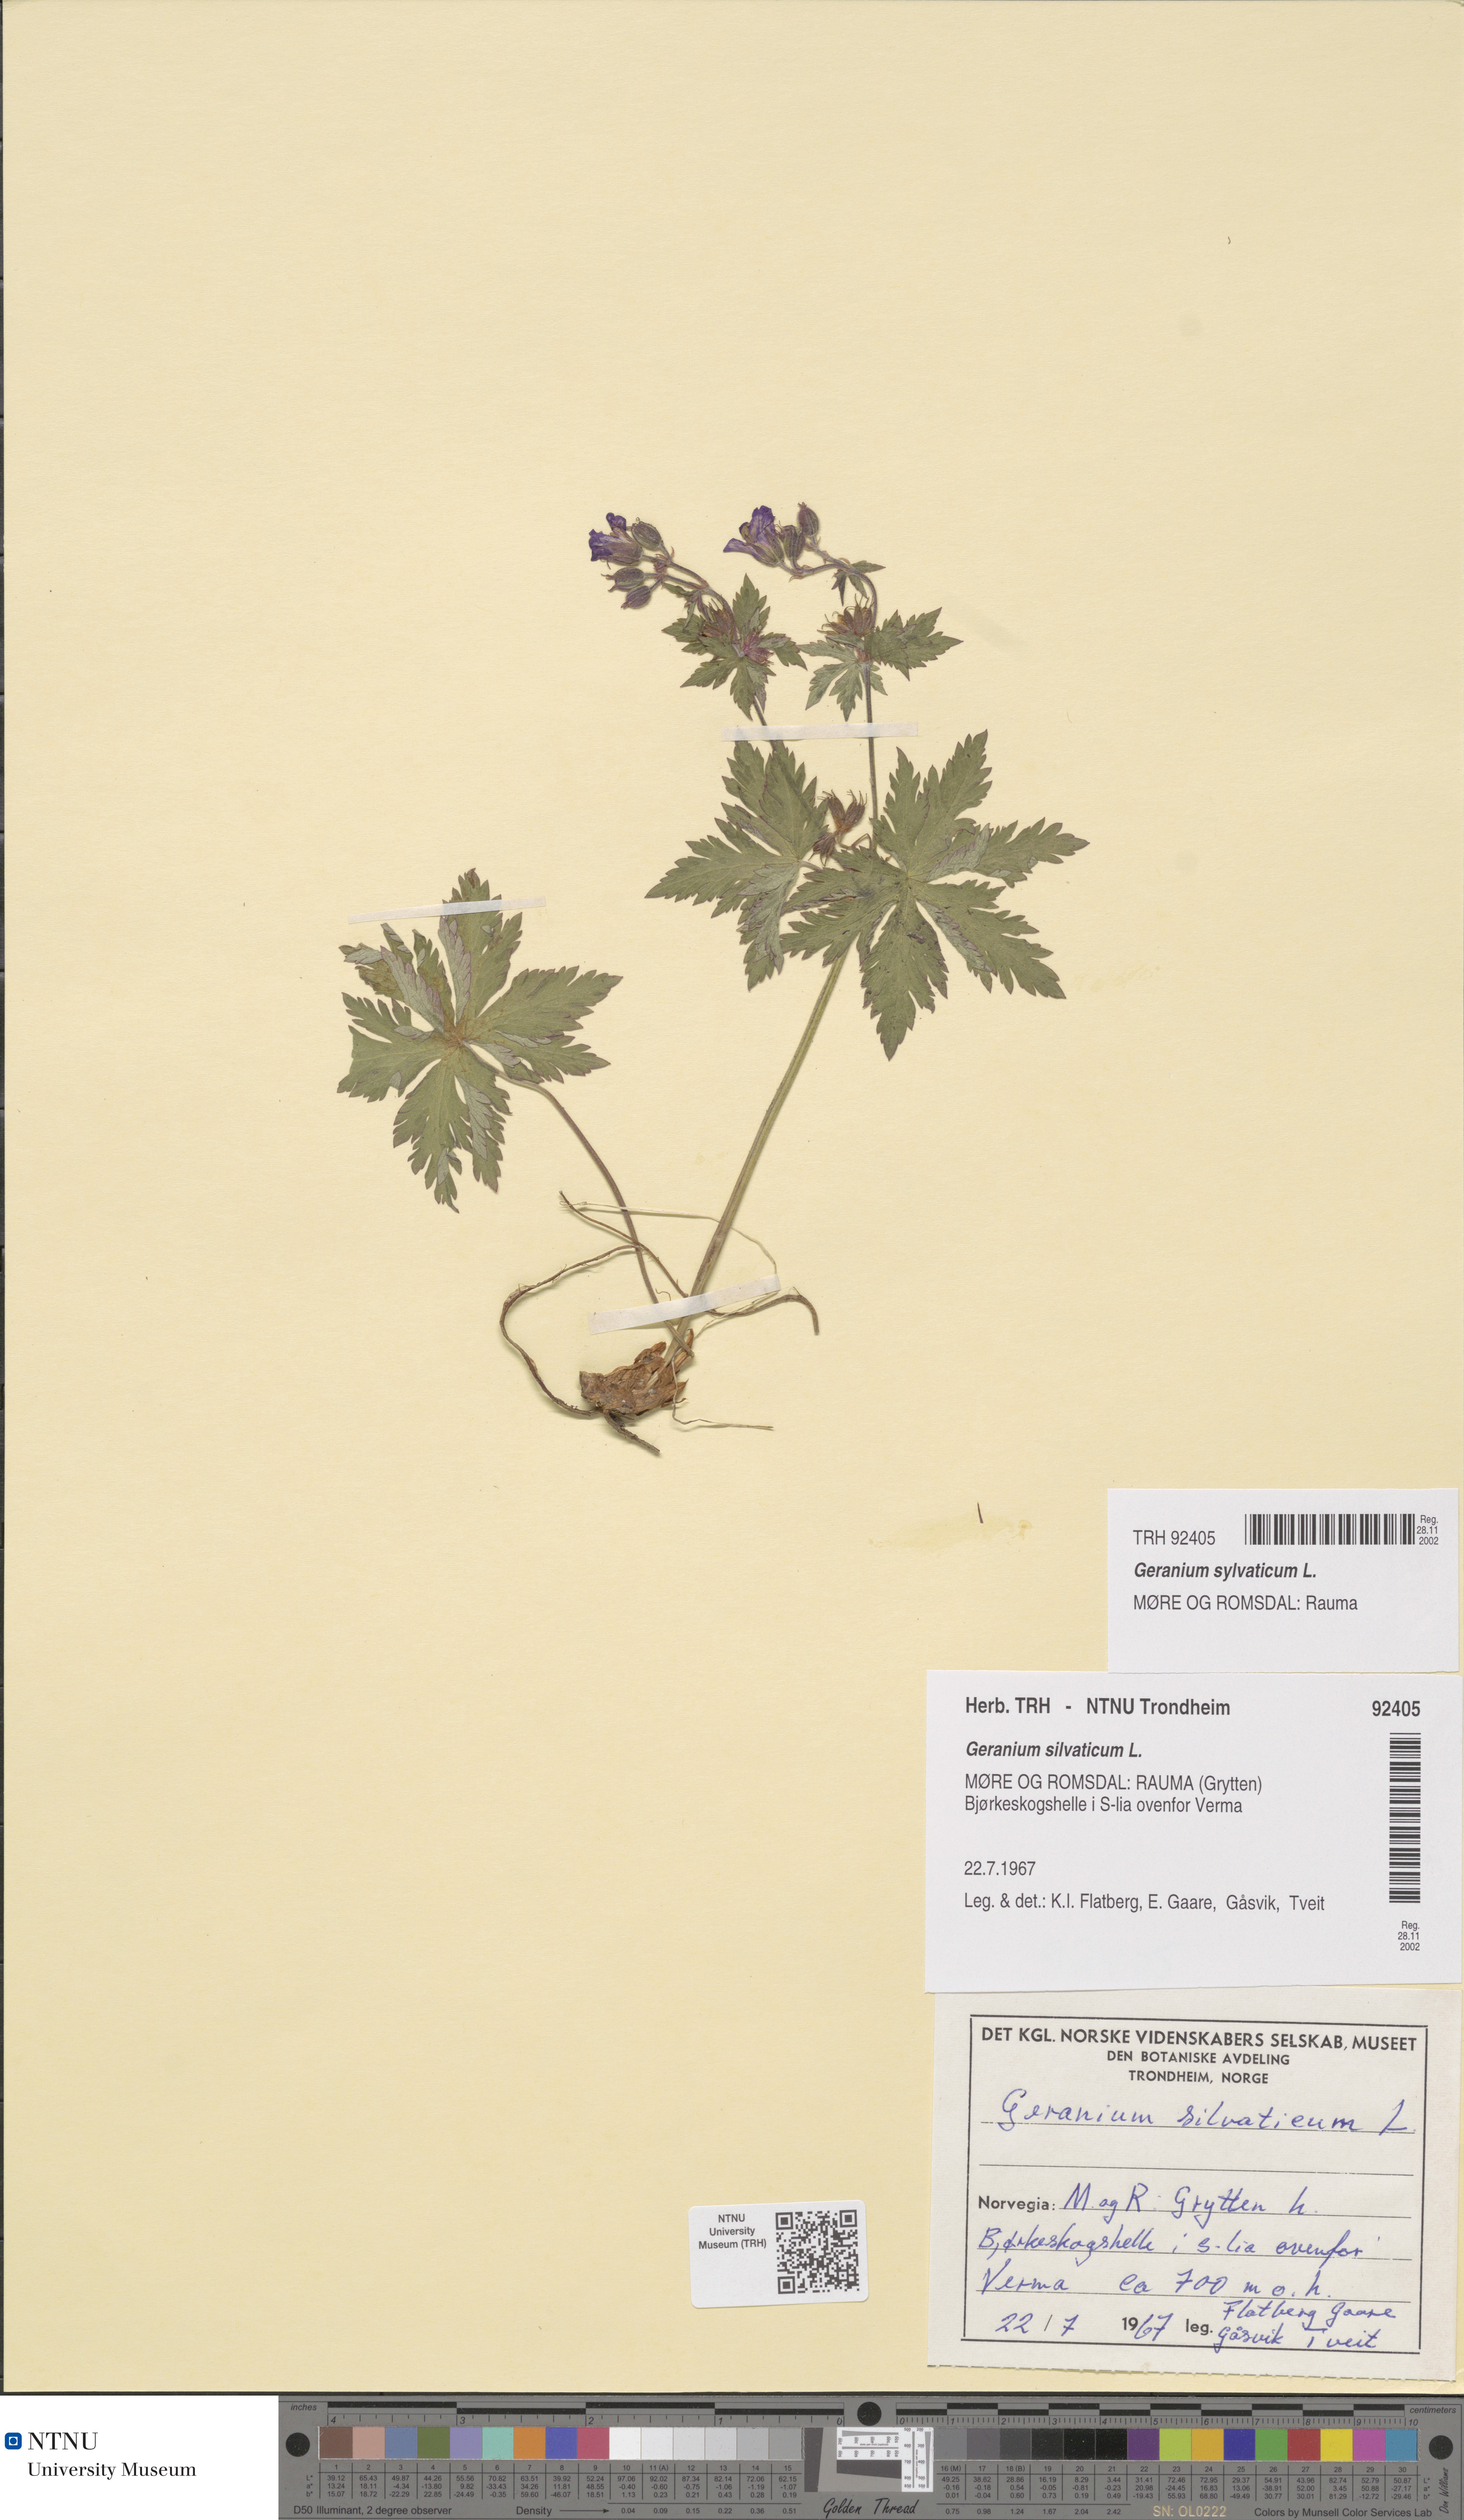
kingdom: Plantae
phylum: Tracheophyta
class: Magnoliopsida
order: Geraniales
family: Geraniaceae
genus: Geranium
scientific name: Geranium sylvaticum
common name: Wood crane's-bill
